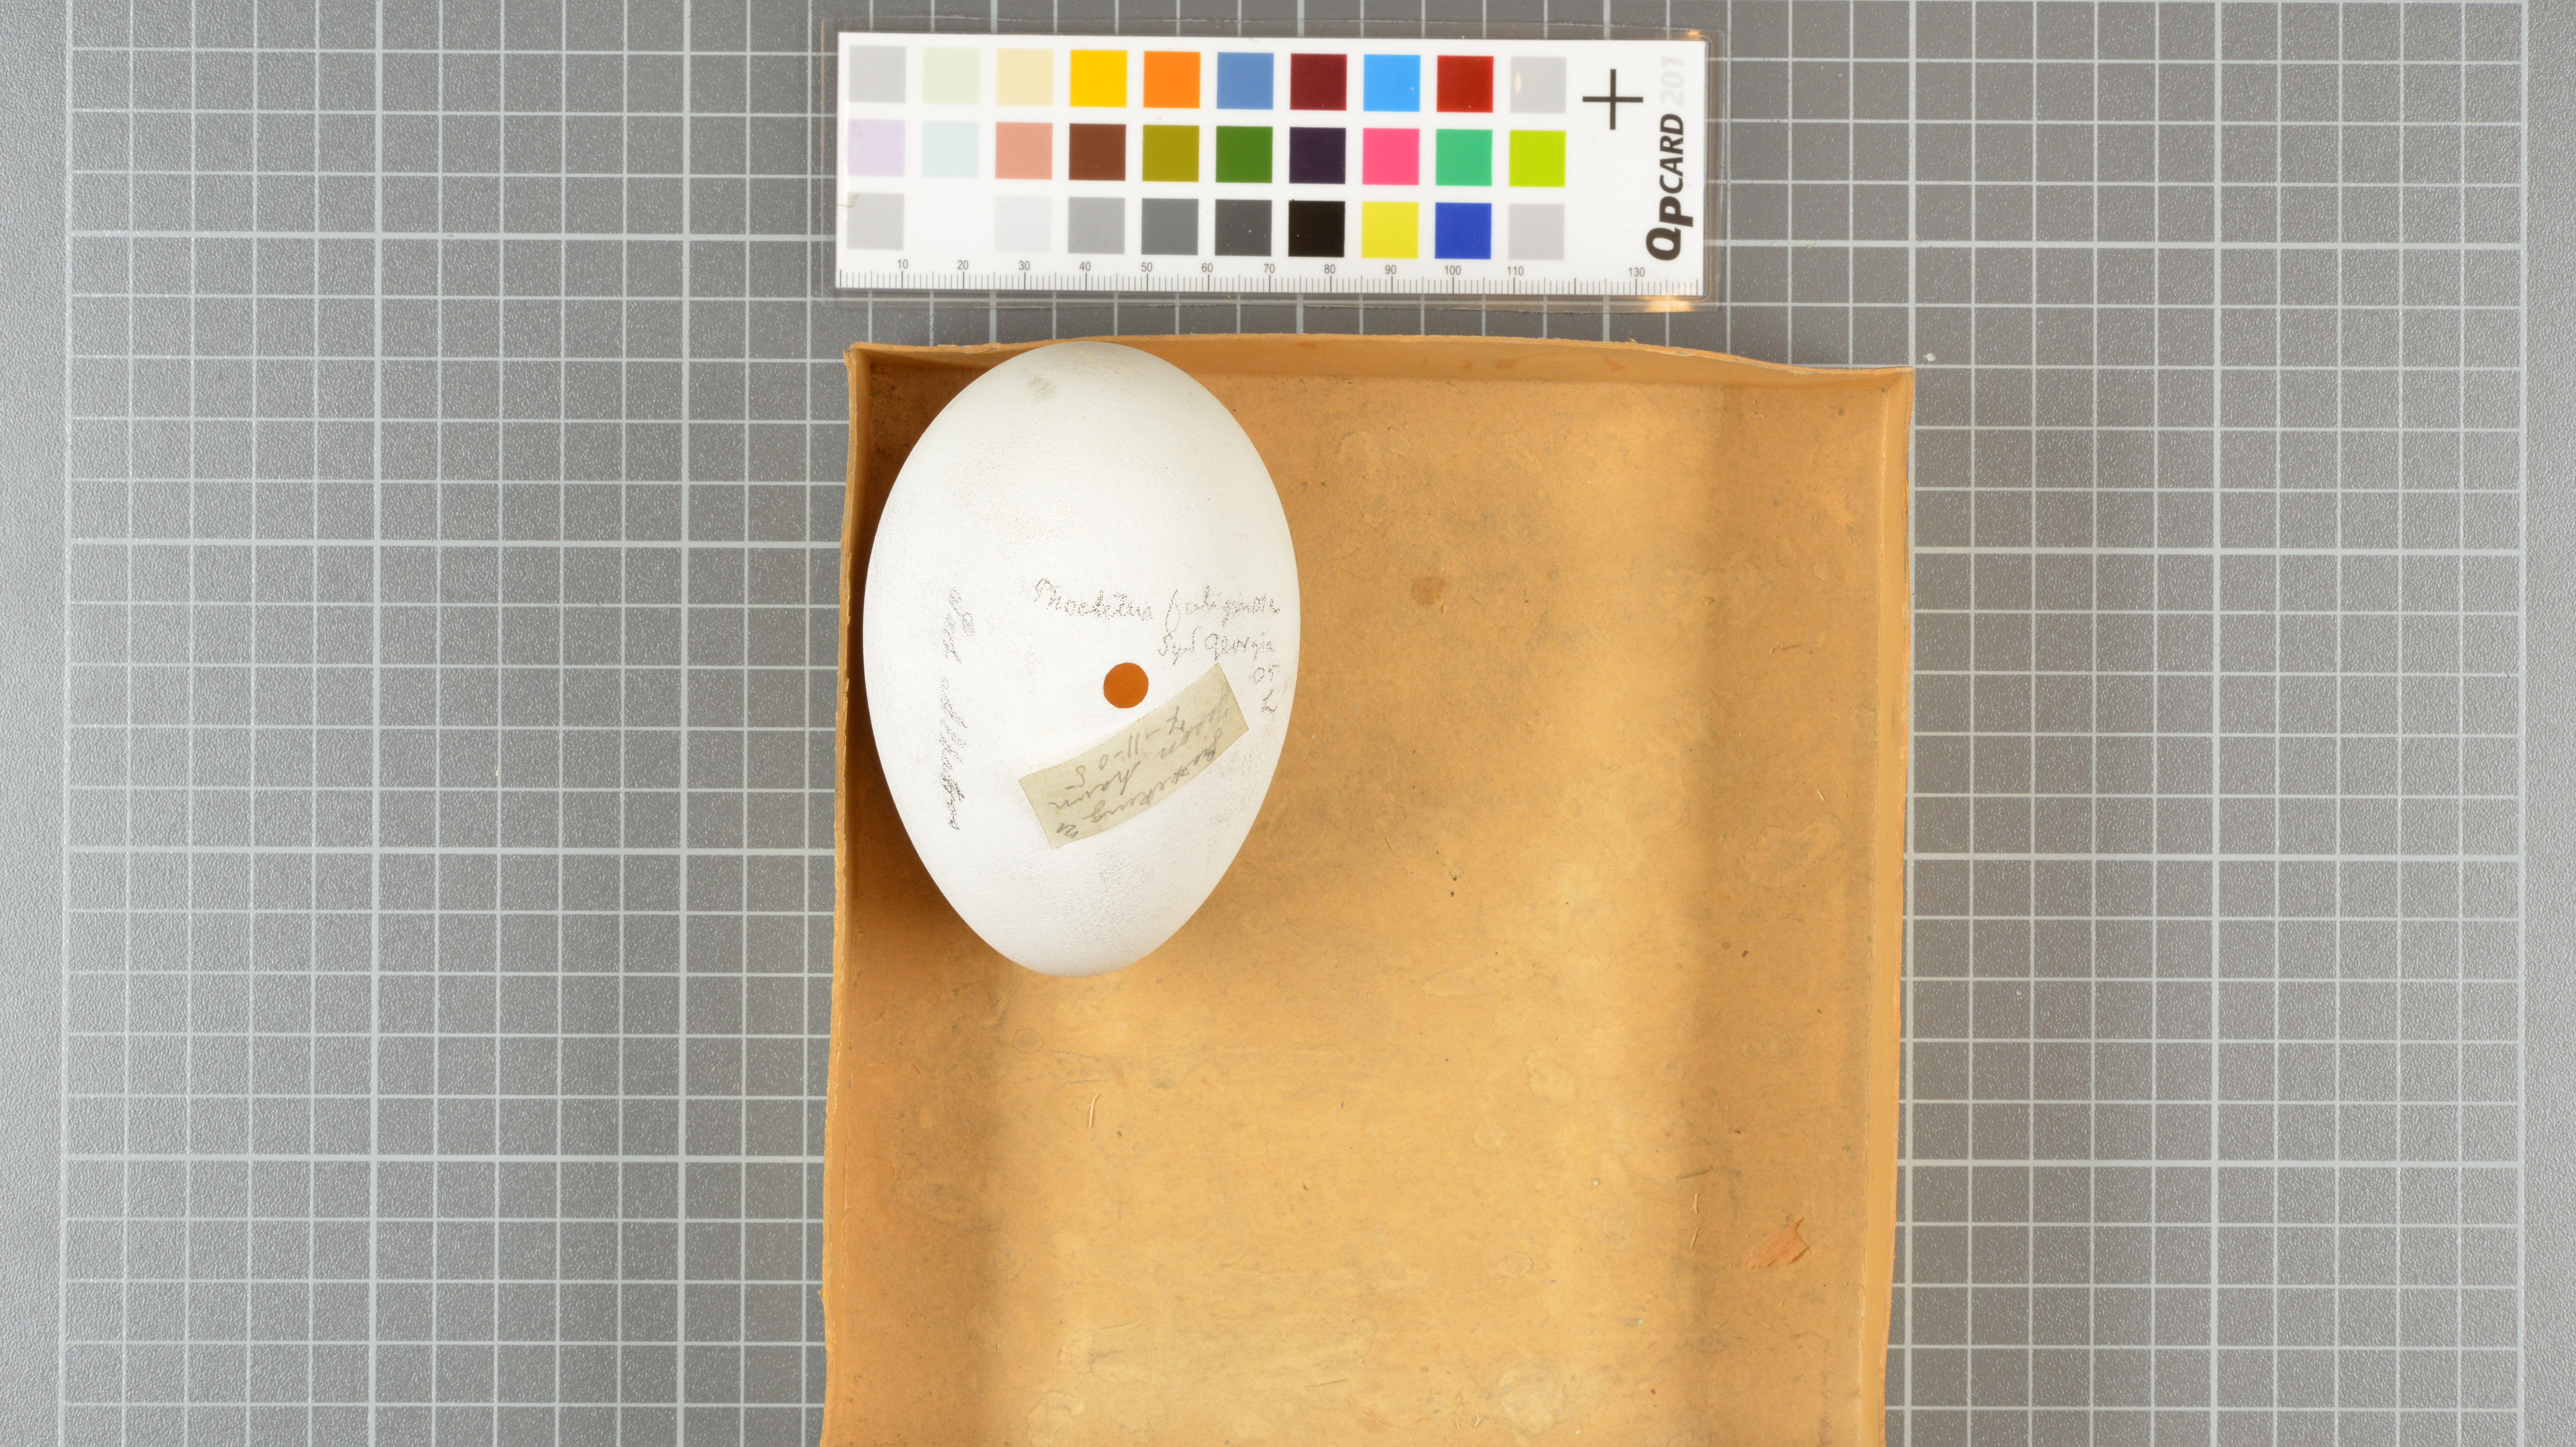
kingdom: Animalia
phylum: Chordata
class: Aves
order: Procellariiformes
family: Diomedeidae
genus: Phoebetria
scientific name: Phoebetria palpebrata
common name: Light-mantled albatross
